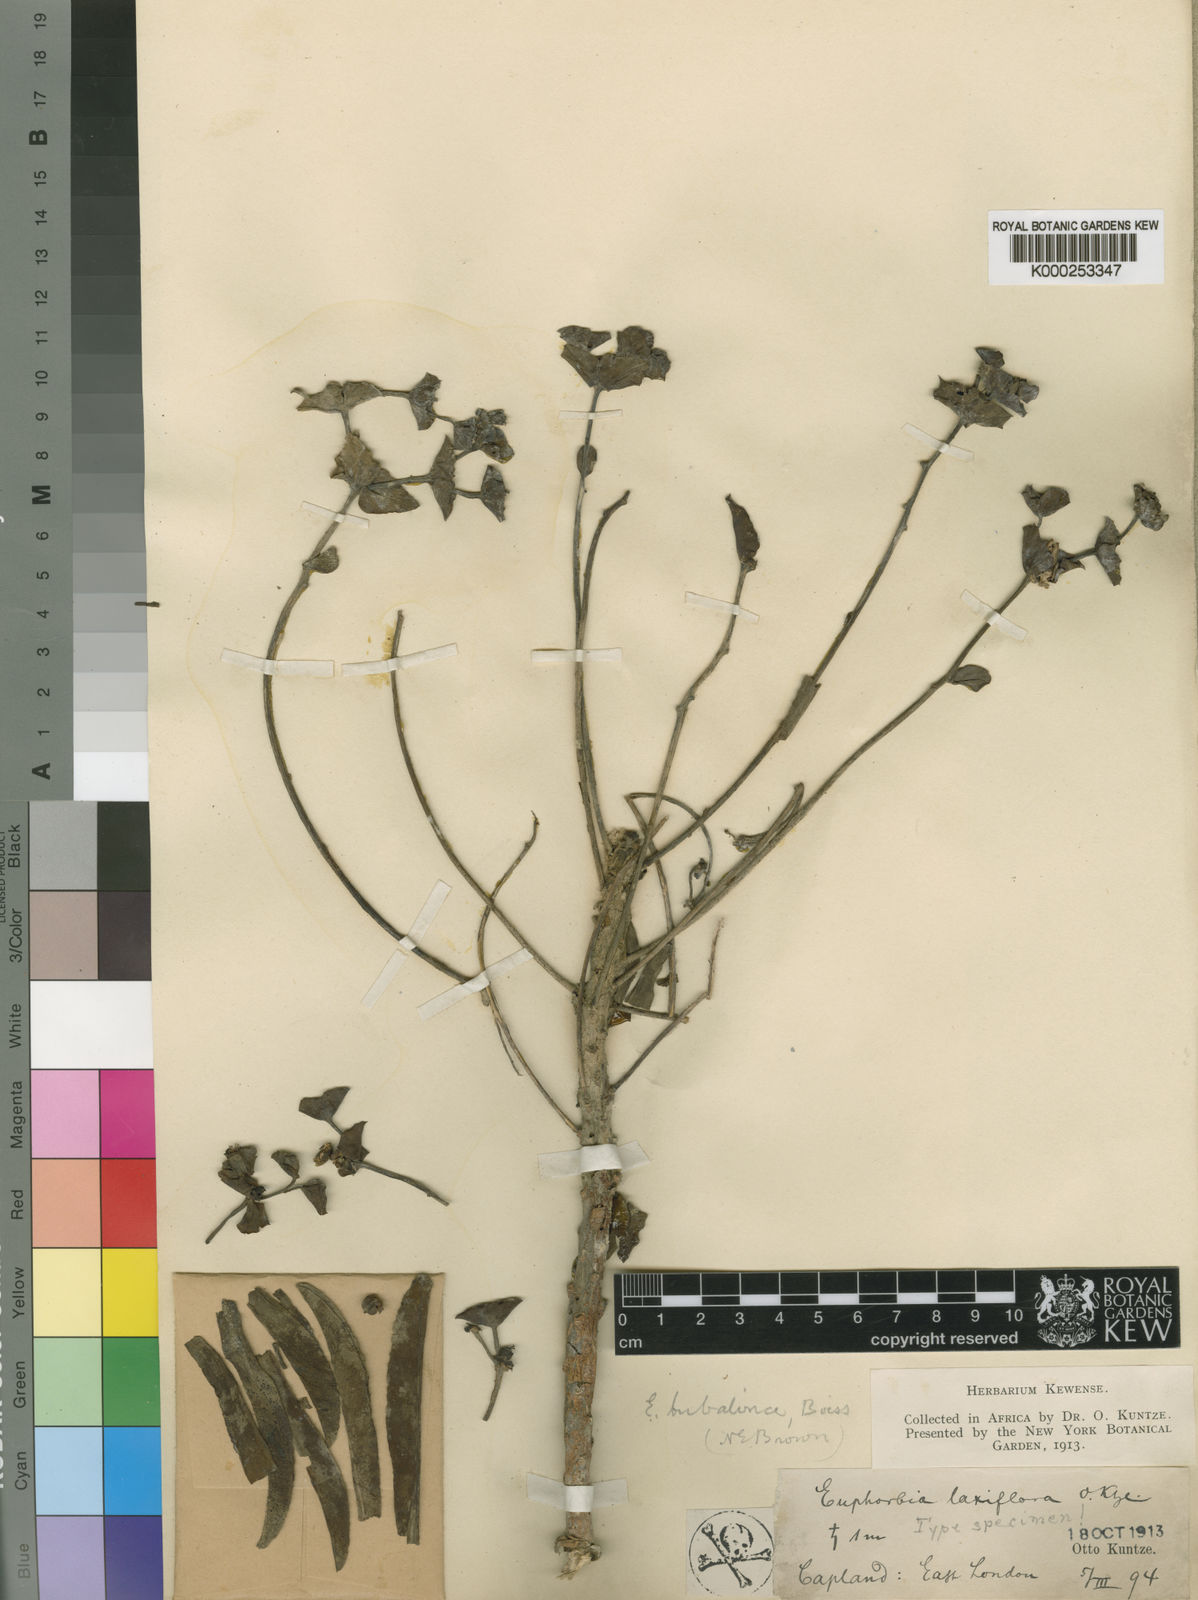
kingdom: Plantae
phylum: Tracheophyta
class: Magnoliopsida
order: Malpighiales
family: Euphorbiaceae
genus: Euphorbia
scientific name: Euphorbia bubalina
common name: Buffalo euphorbia
